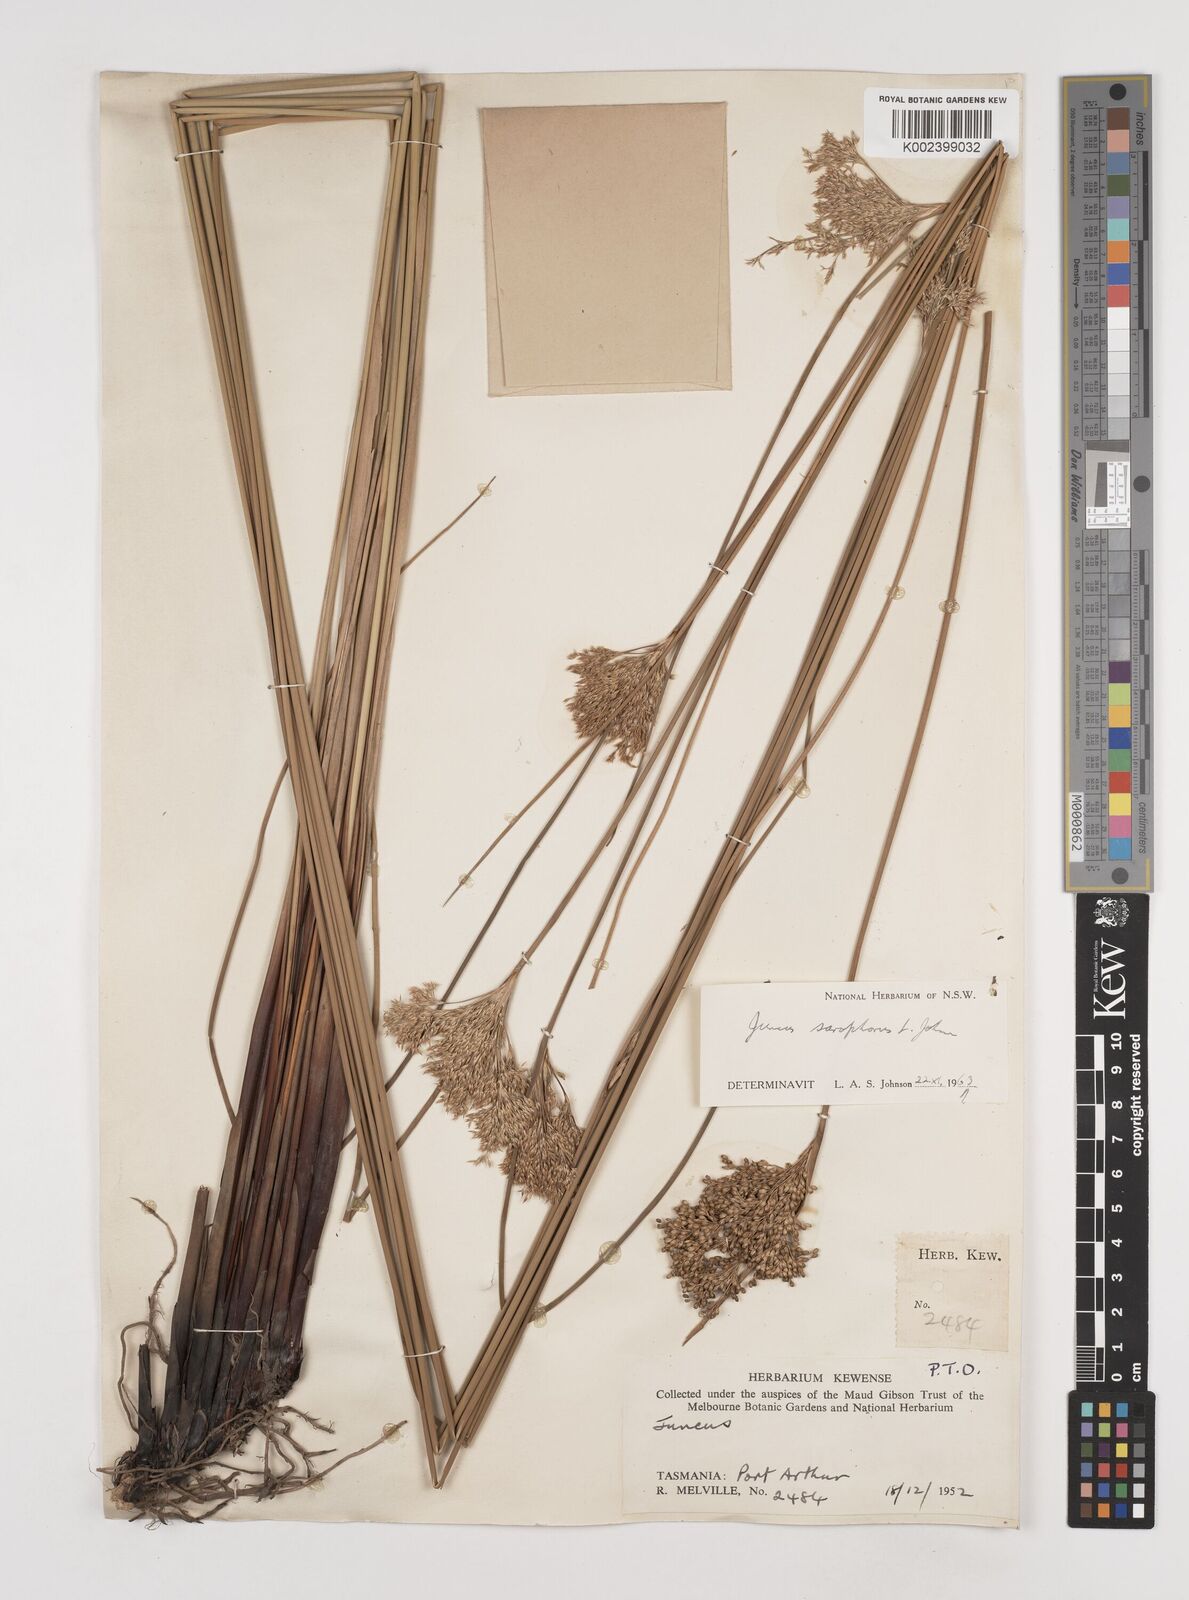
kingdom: Plantae
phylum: Tracheophyta
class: Liliopsida
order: Poales
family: Juncaceae
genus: Juncus
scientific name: Juncus sarophorus
